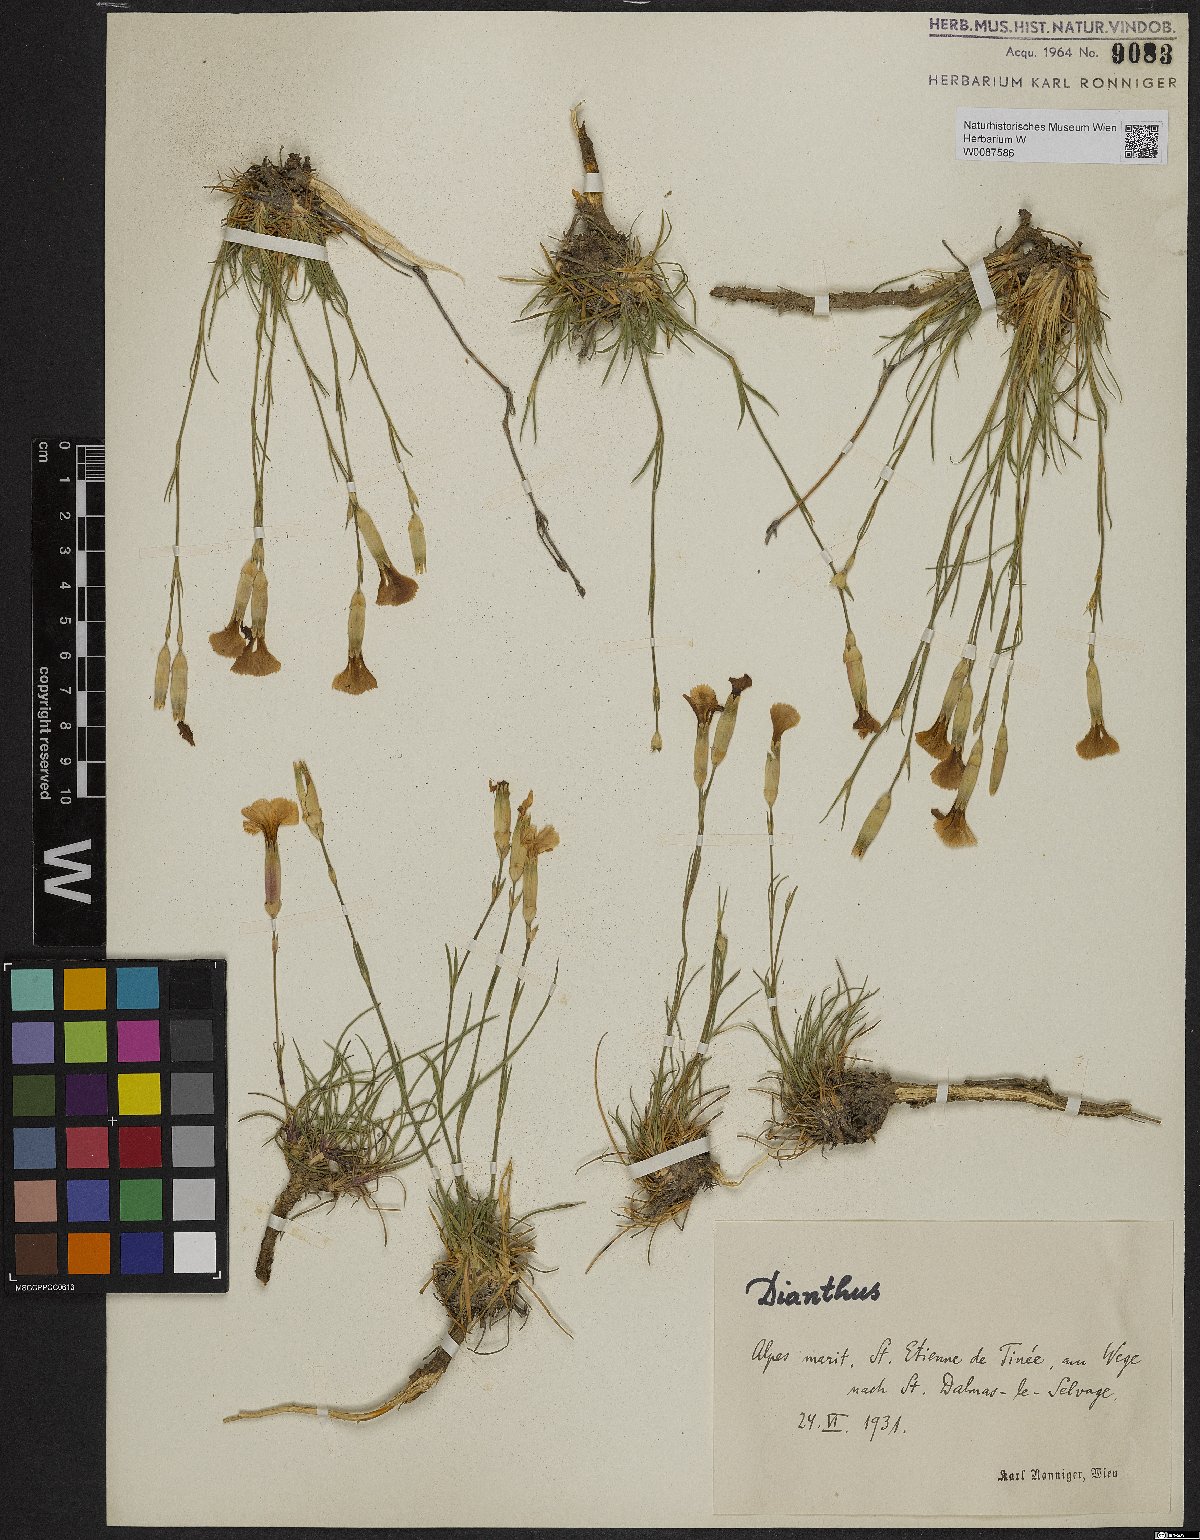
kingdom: Plantae
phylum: Tracheophyta
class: Magnoliopsida
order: Caryophyllales
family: Caryophyllaceae
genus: Dianthus
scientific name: Dianthus
